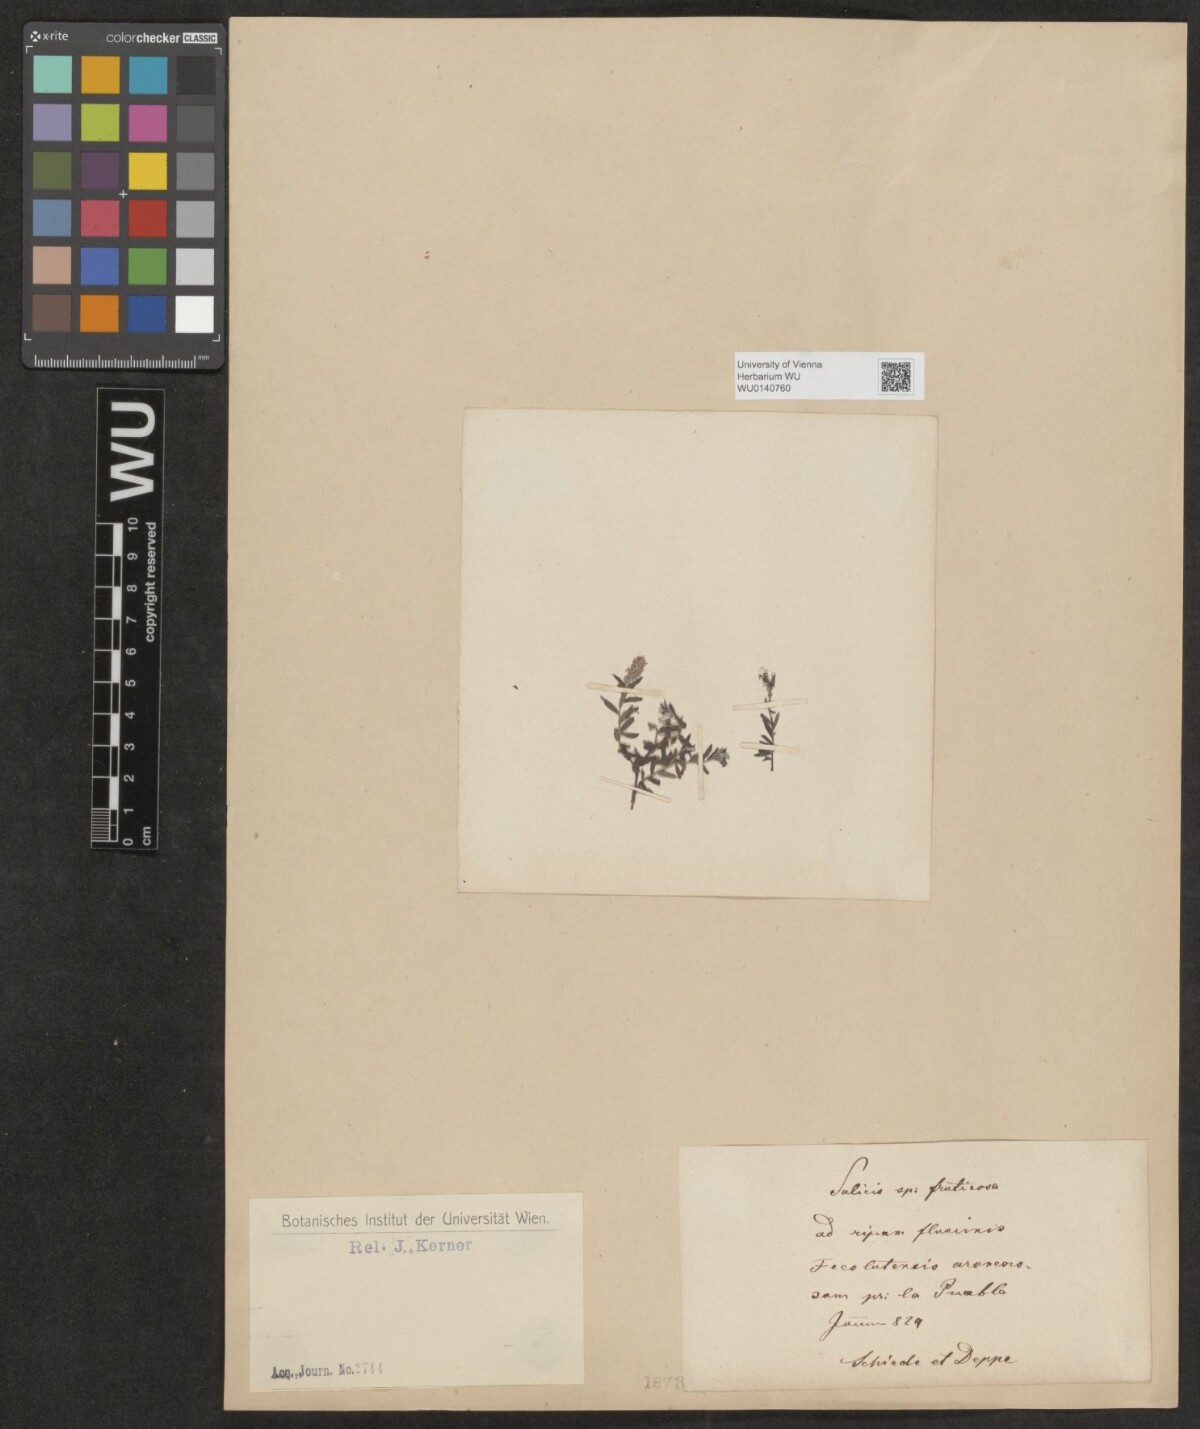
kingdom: Plantae
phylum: Tracheophyta
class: Magnoliopsida
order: Malpighiales
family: Salicaceae
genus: Salix
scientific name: Salix
